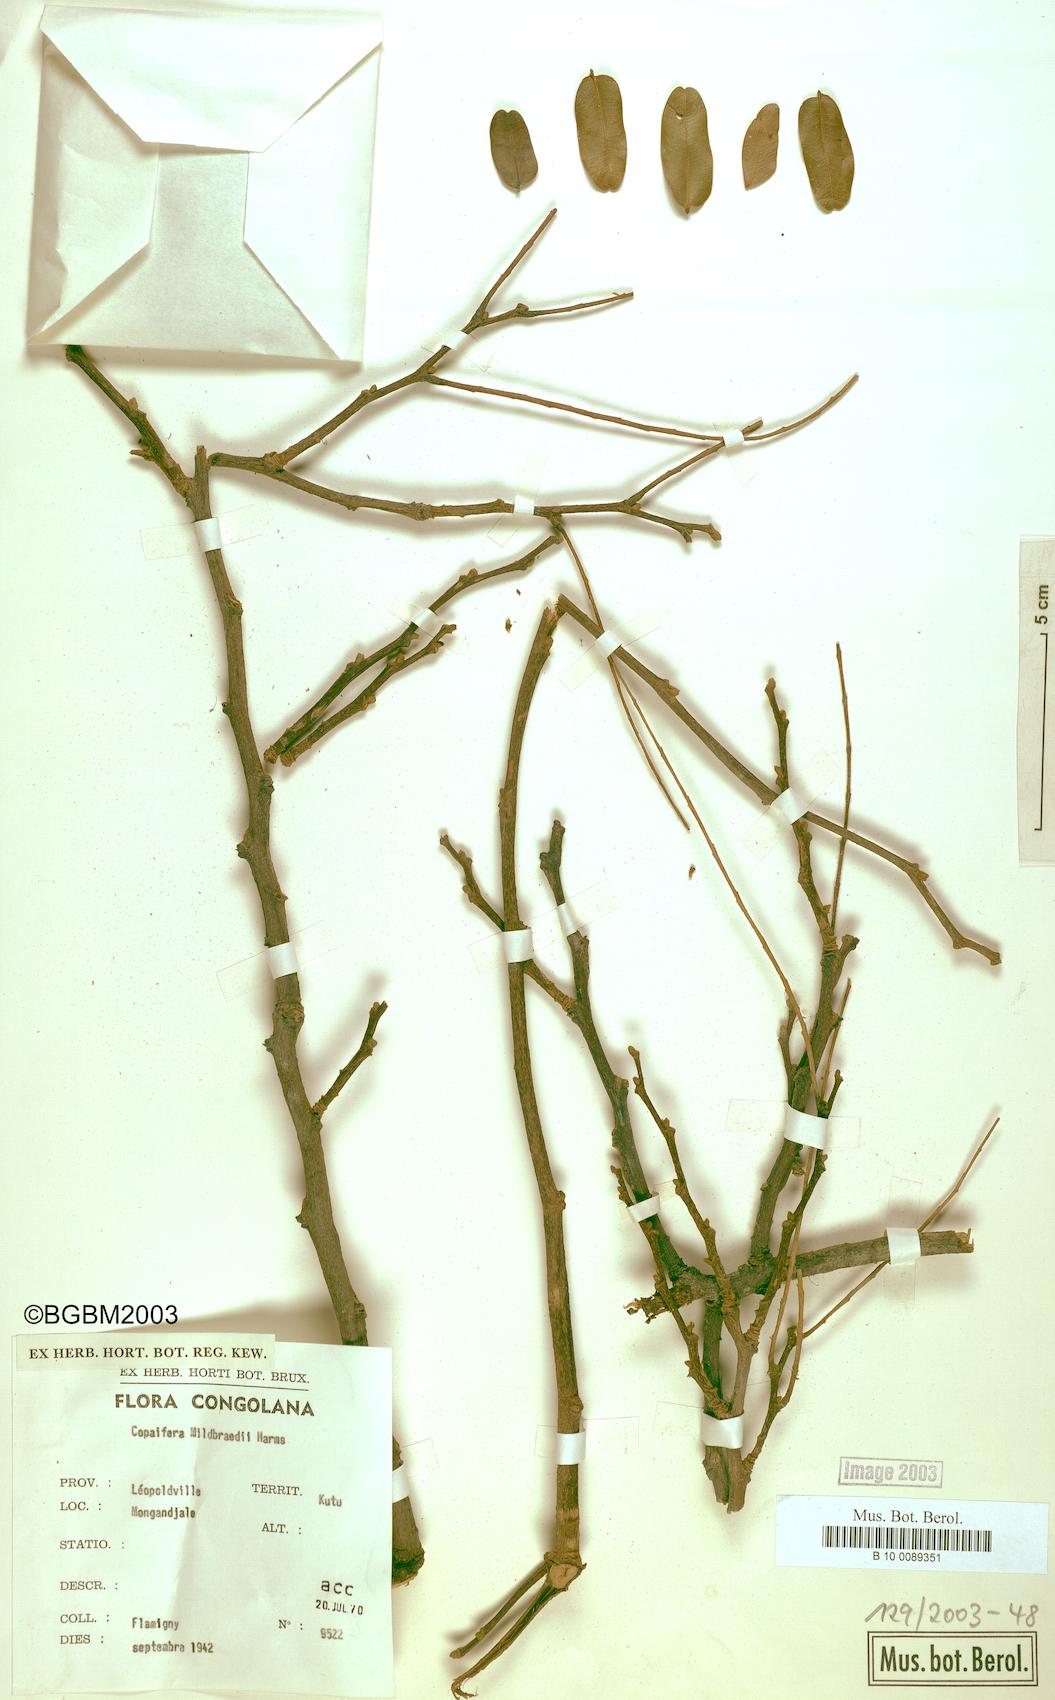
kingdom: Plantae
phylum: Tracheophyta
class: Magnoliopsida
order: Fabales
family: Fabaceae
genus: Copaifera
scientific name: Copaifera mildbraedii
